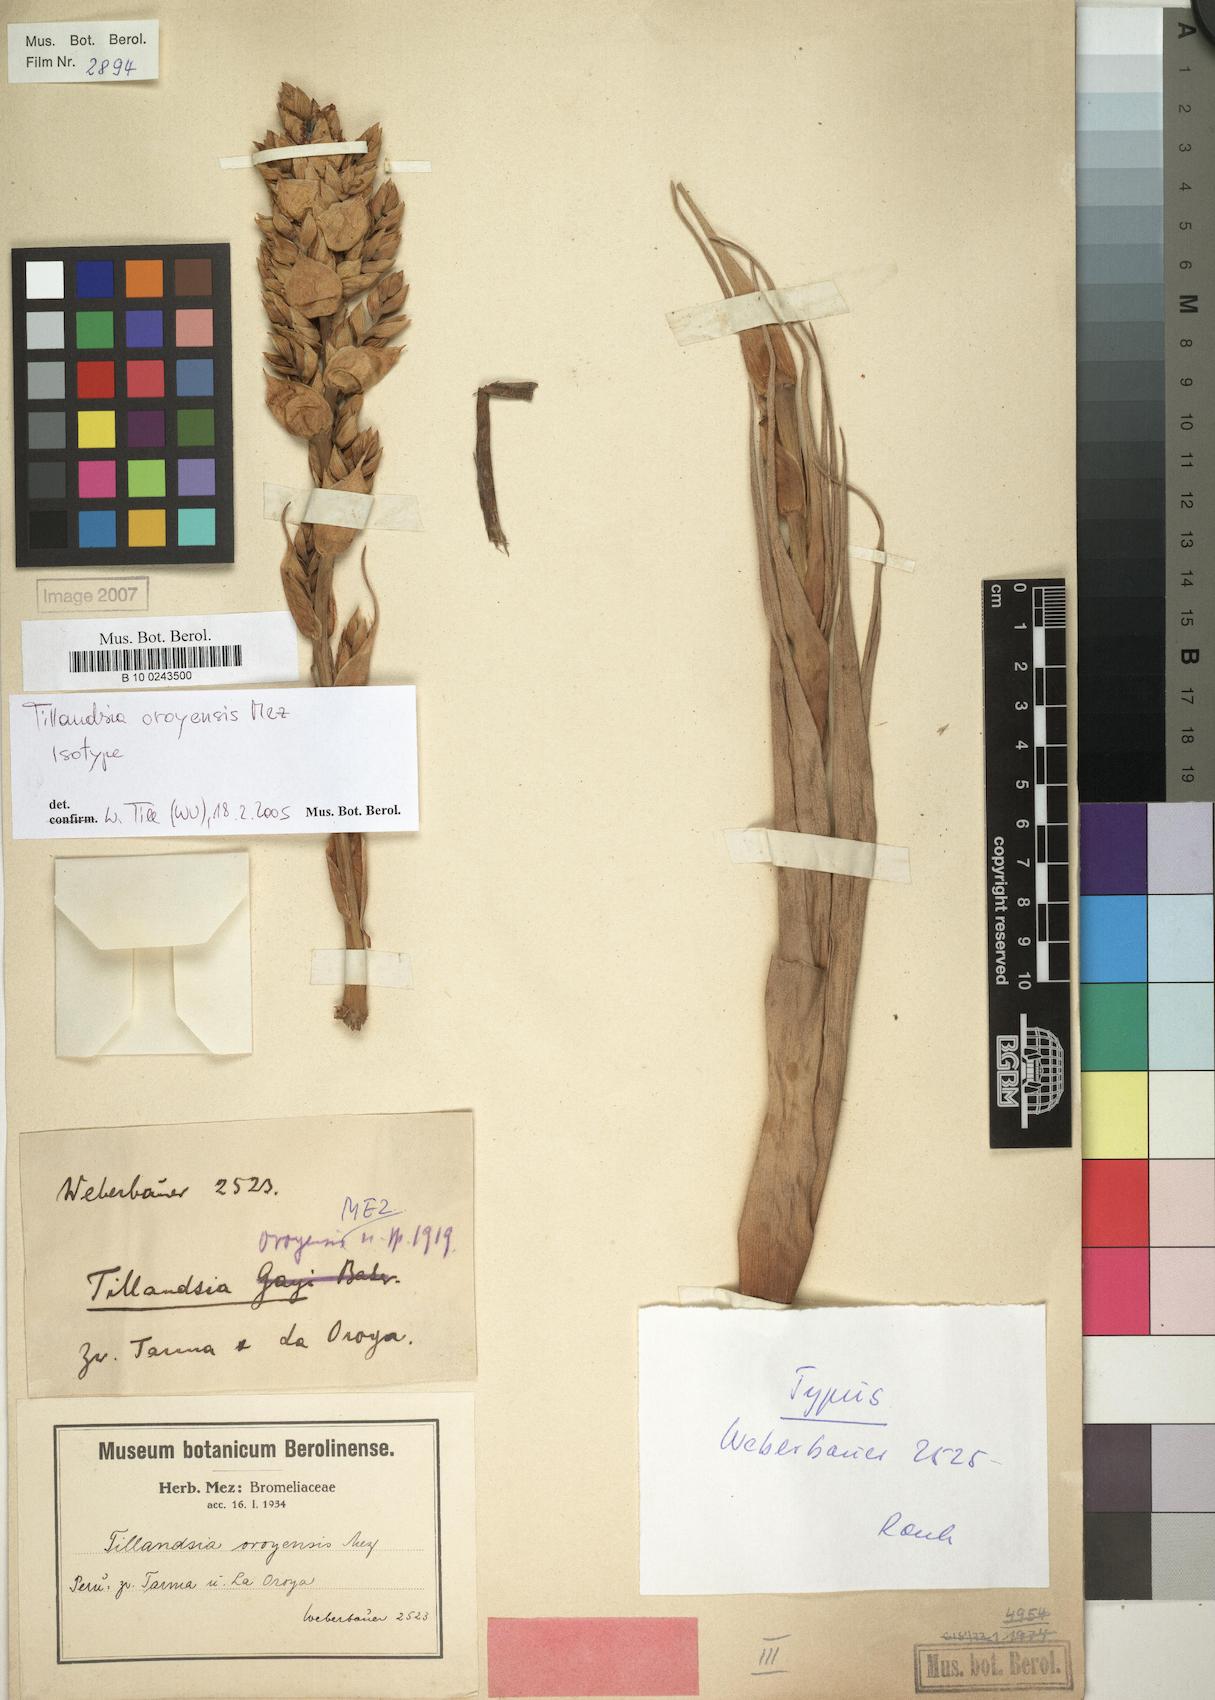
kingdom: Plantae
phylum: Tracheophyta
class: Liliopsida
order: Poales
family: Bromeliaceae
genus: Tillandsia
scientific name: Tillandsia oroyensis
